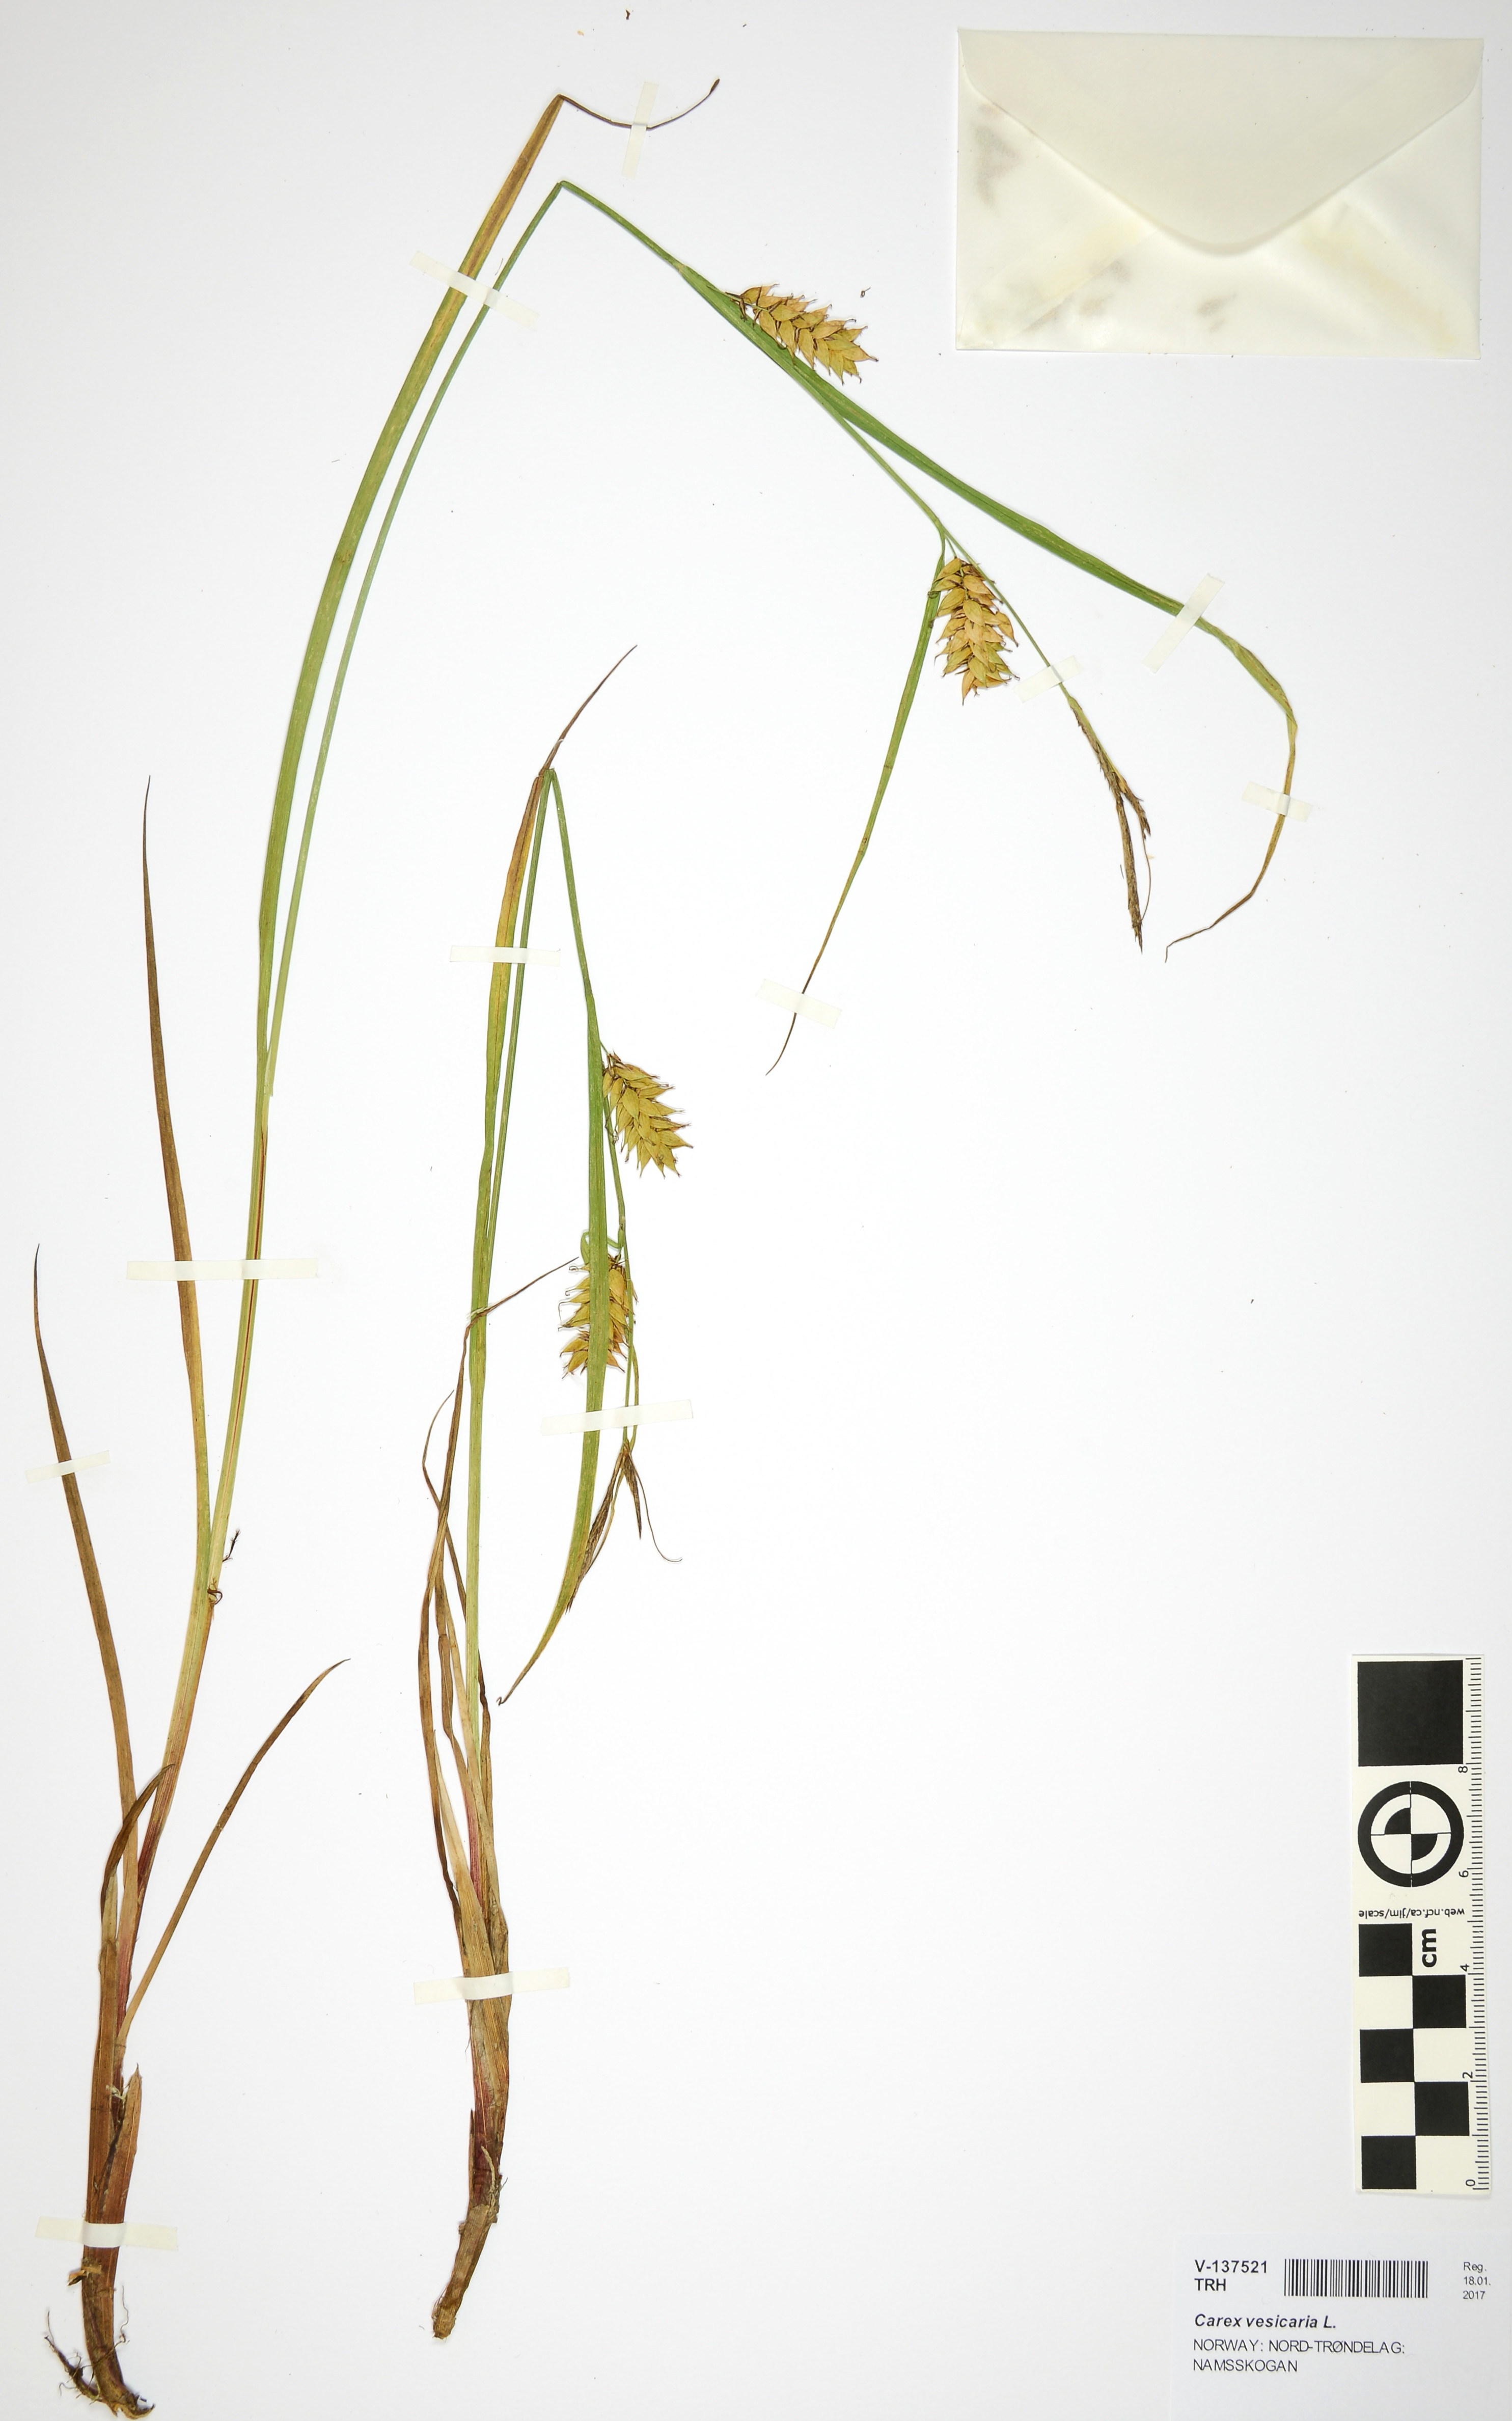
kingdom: Plantae
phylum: Tracheophyta
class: Liliopsida
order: Poales
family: Cyperaceae
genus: Carex
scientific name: Carex vesicaria
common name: Bladder-sedge
